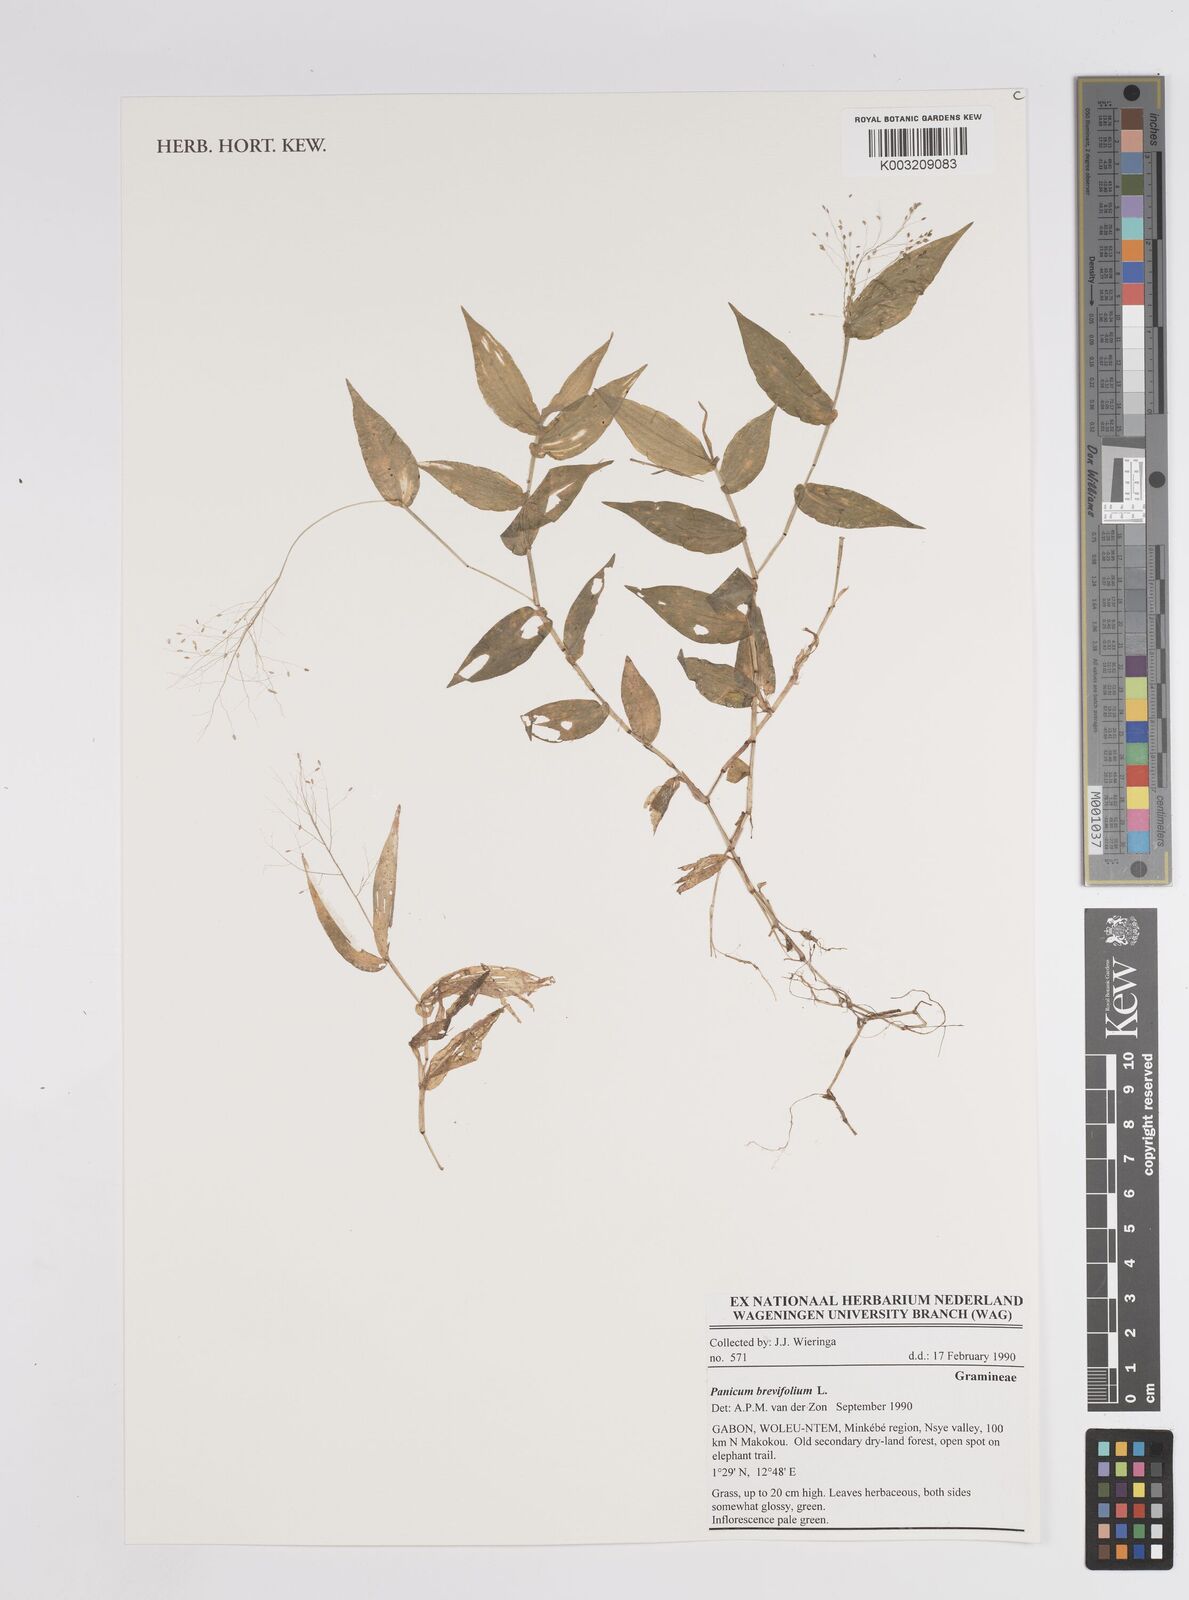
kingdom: Plantae
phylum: Tracheophyta
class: Liliopsida
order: Poales
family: Poaceae
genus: Panicum
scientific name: Panicum brevifolium
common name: Shortleaf panic grass
